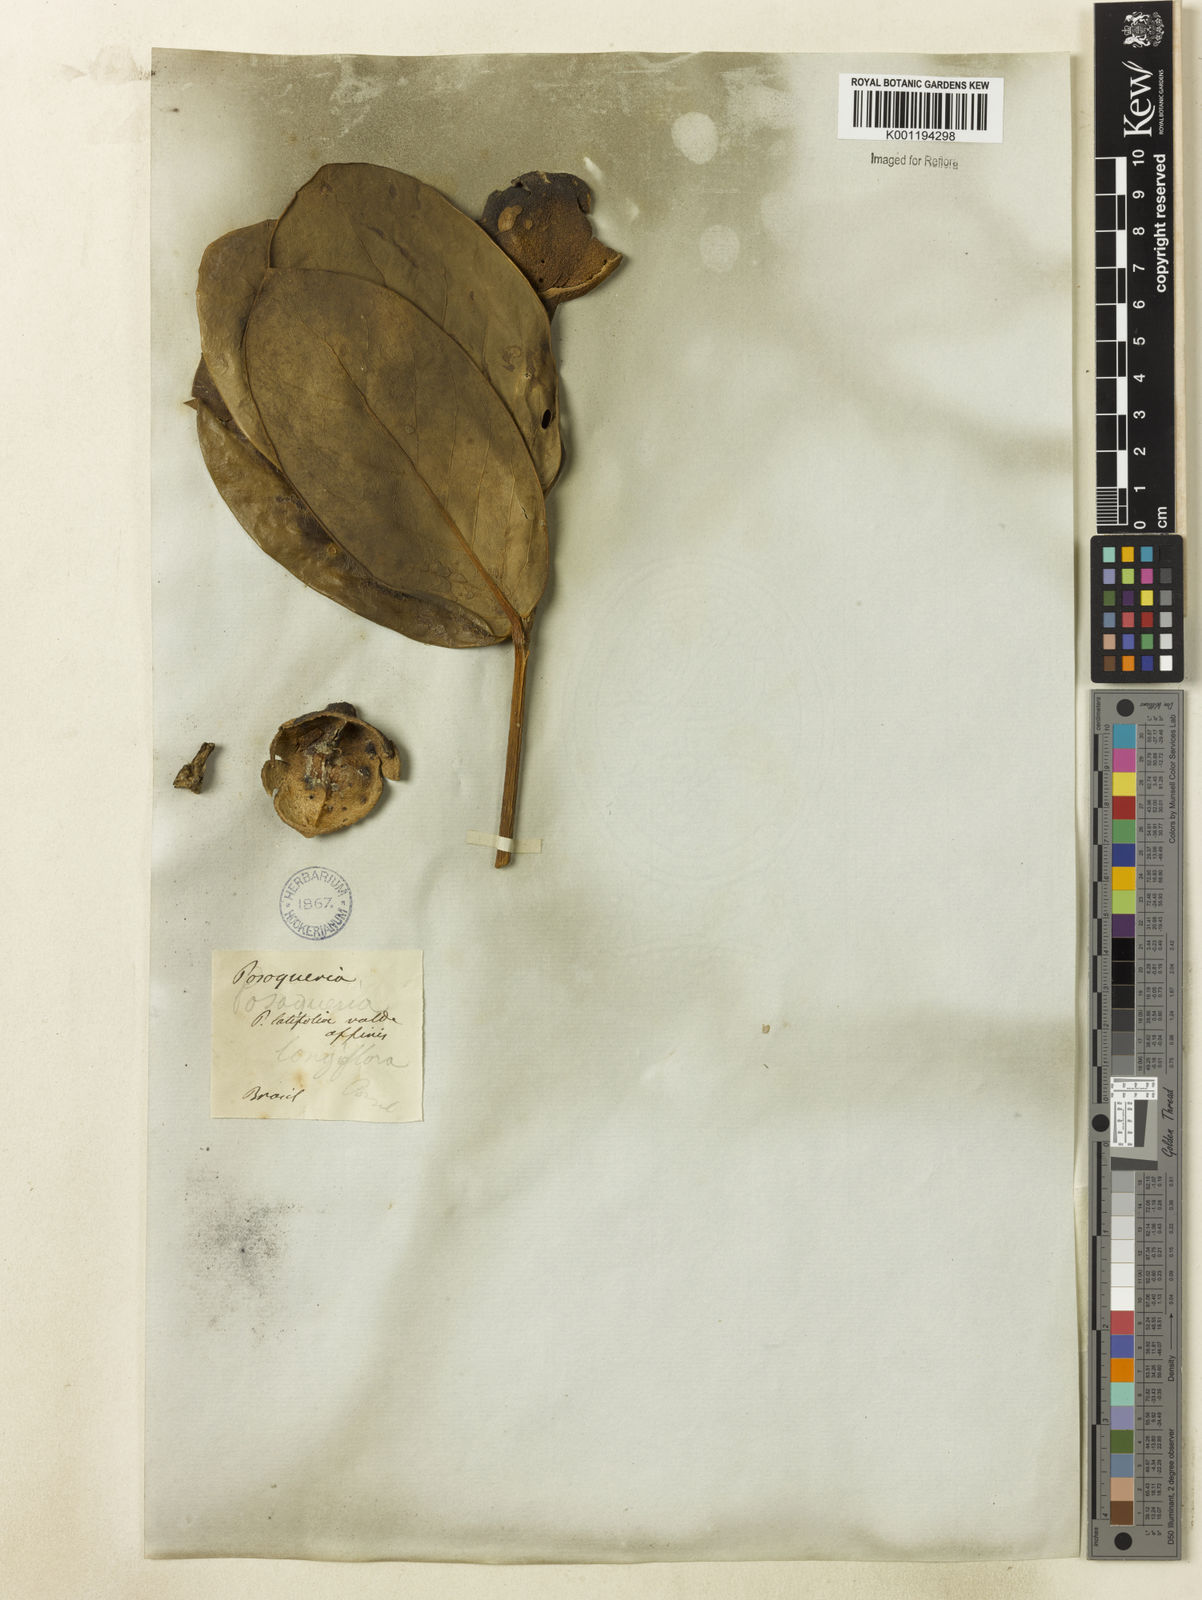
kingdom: Plantae
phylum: Tracheophyta
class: Magnoliopsida
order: Gentianales
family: Rubiaceae
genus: Posoqueria
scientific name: Posoqueria latifolia
